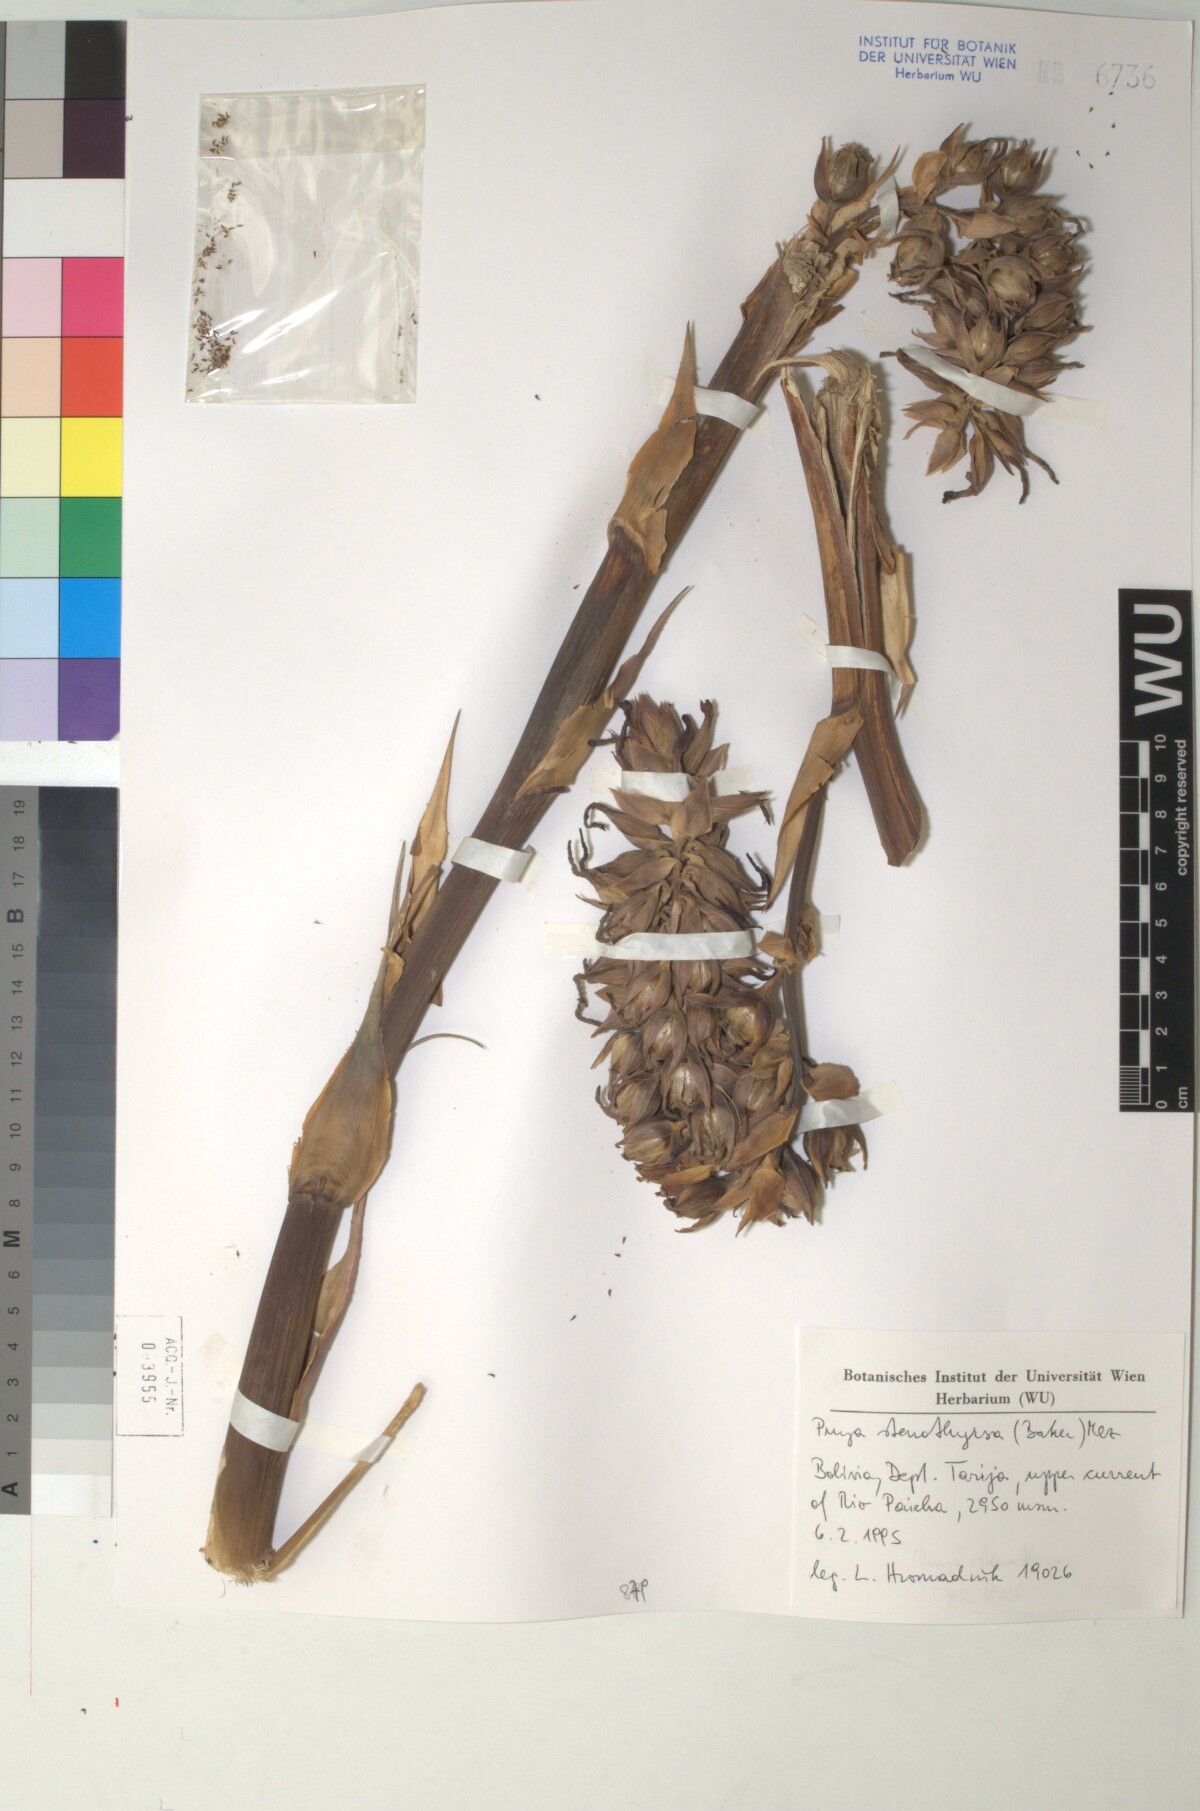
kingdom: Plantae
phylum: Tracheophyta
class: Liliopsida
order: Poales
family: Bromeliaceae
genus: Puya
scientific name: Puya stenothyrsa
